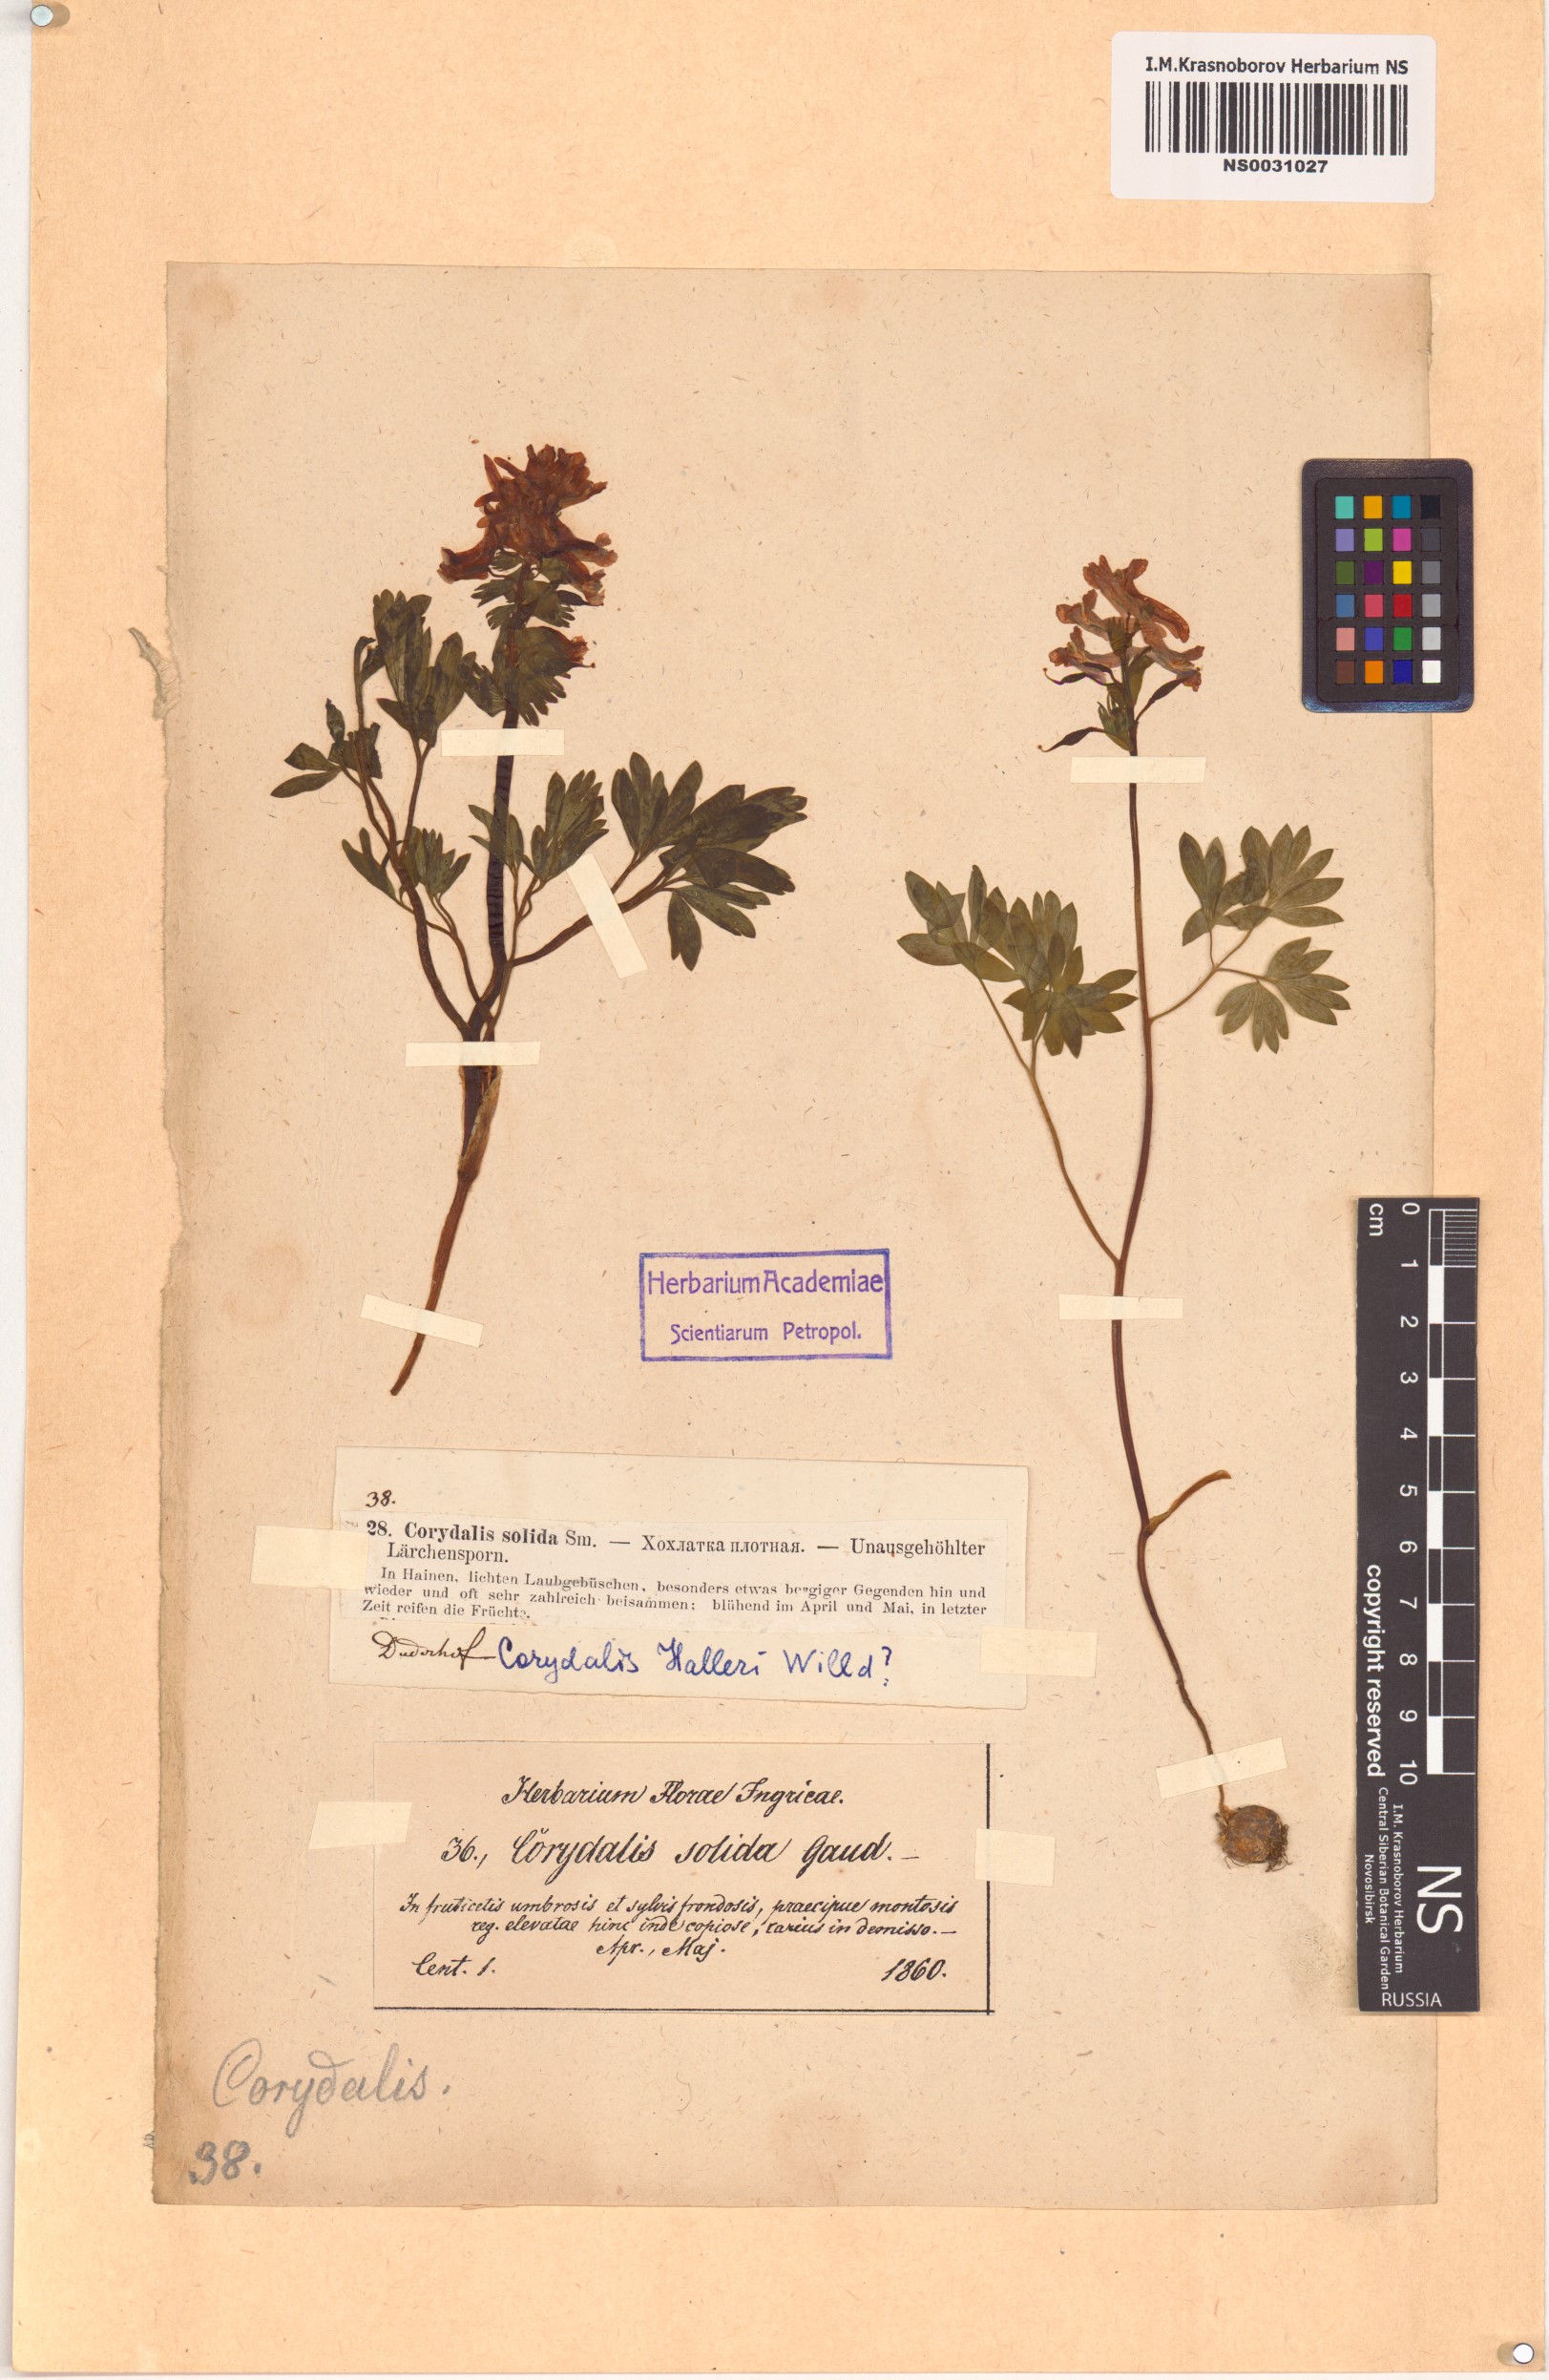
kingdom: Plantae
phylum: Tracheophyta
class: Magnoliopsida
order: Ranunculales
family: Papaveraceae
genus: Corydalis
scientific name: Corydalis solida
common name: Bird-in-a-bush
